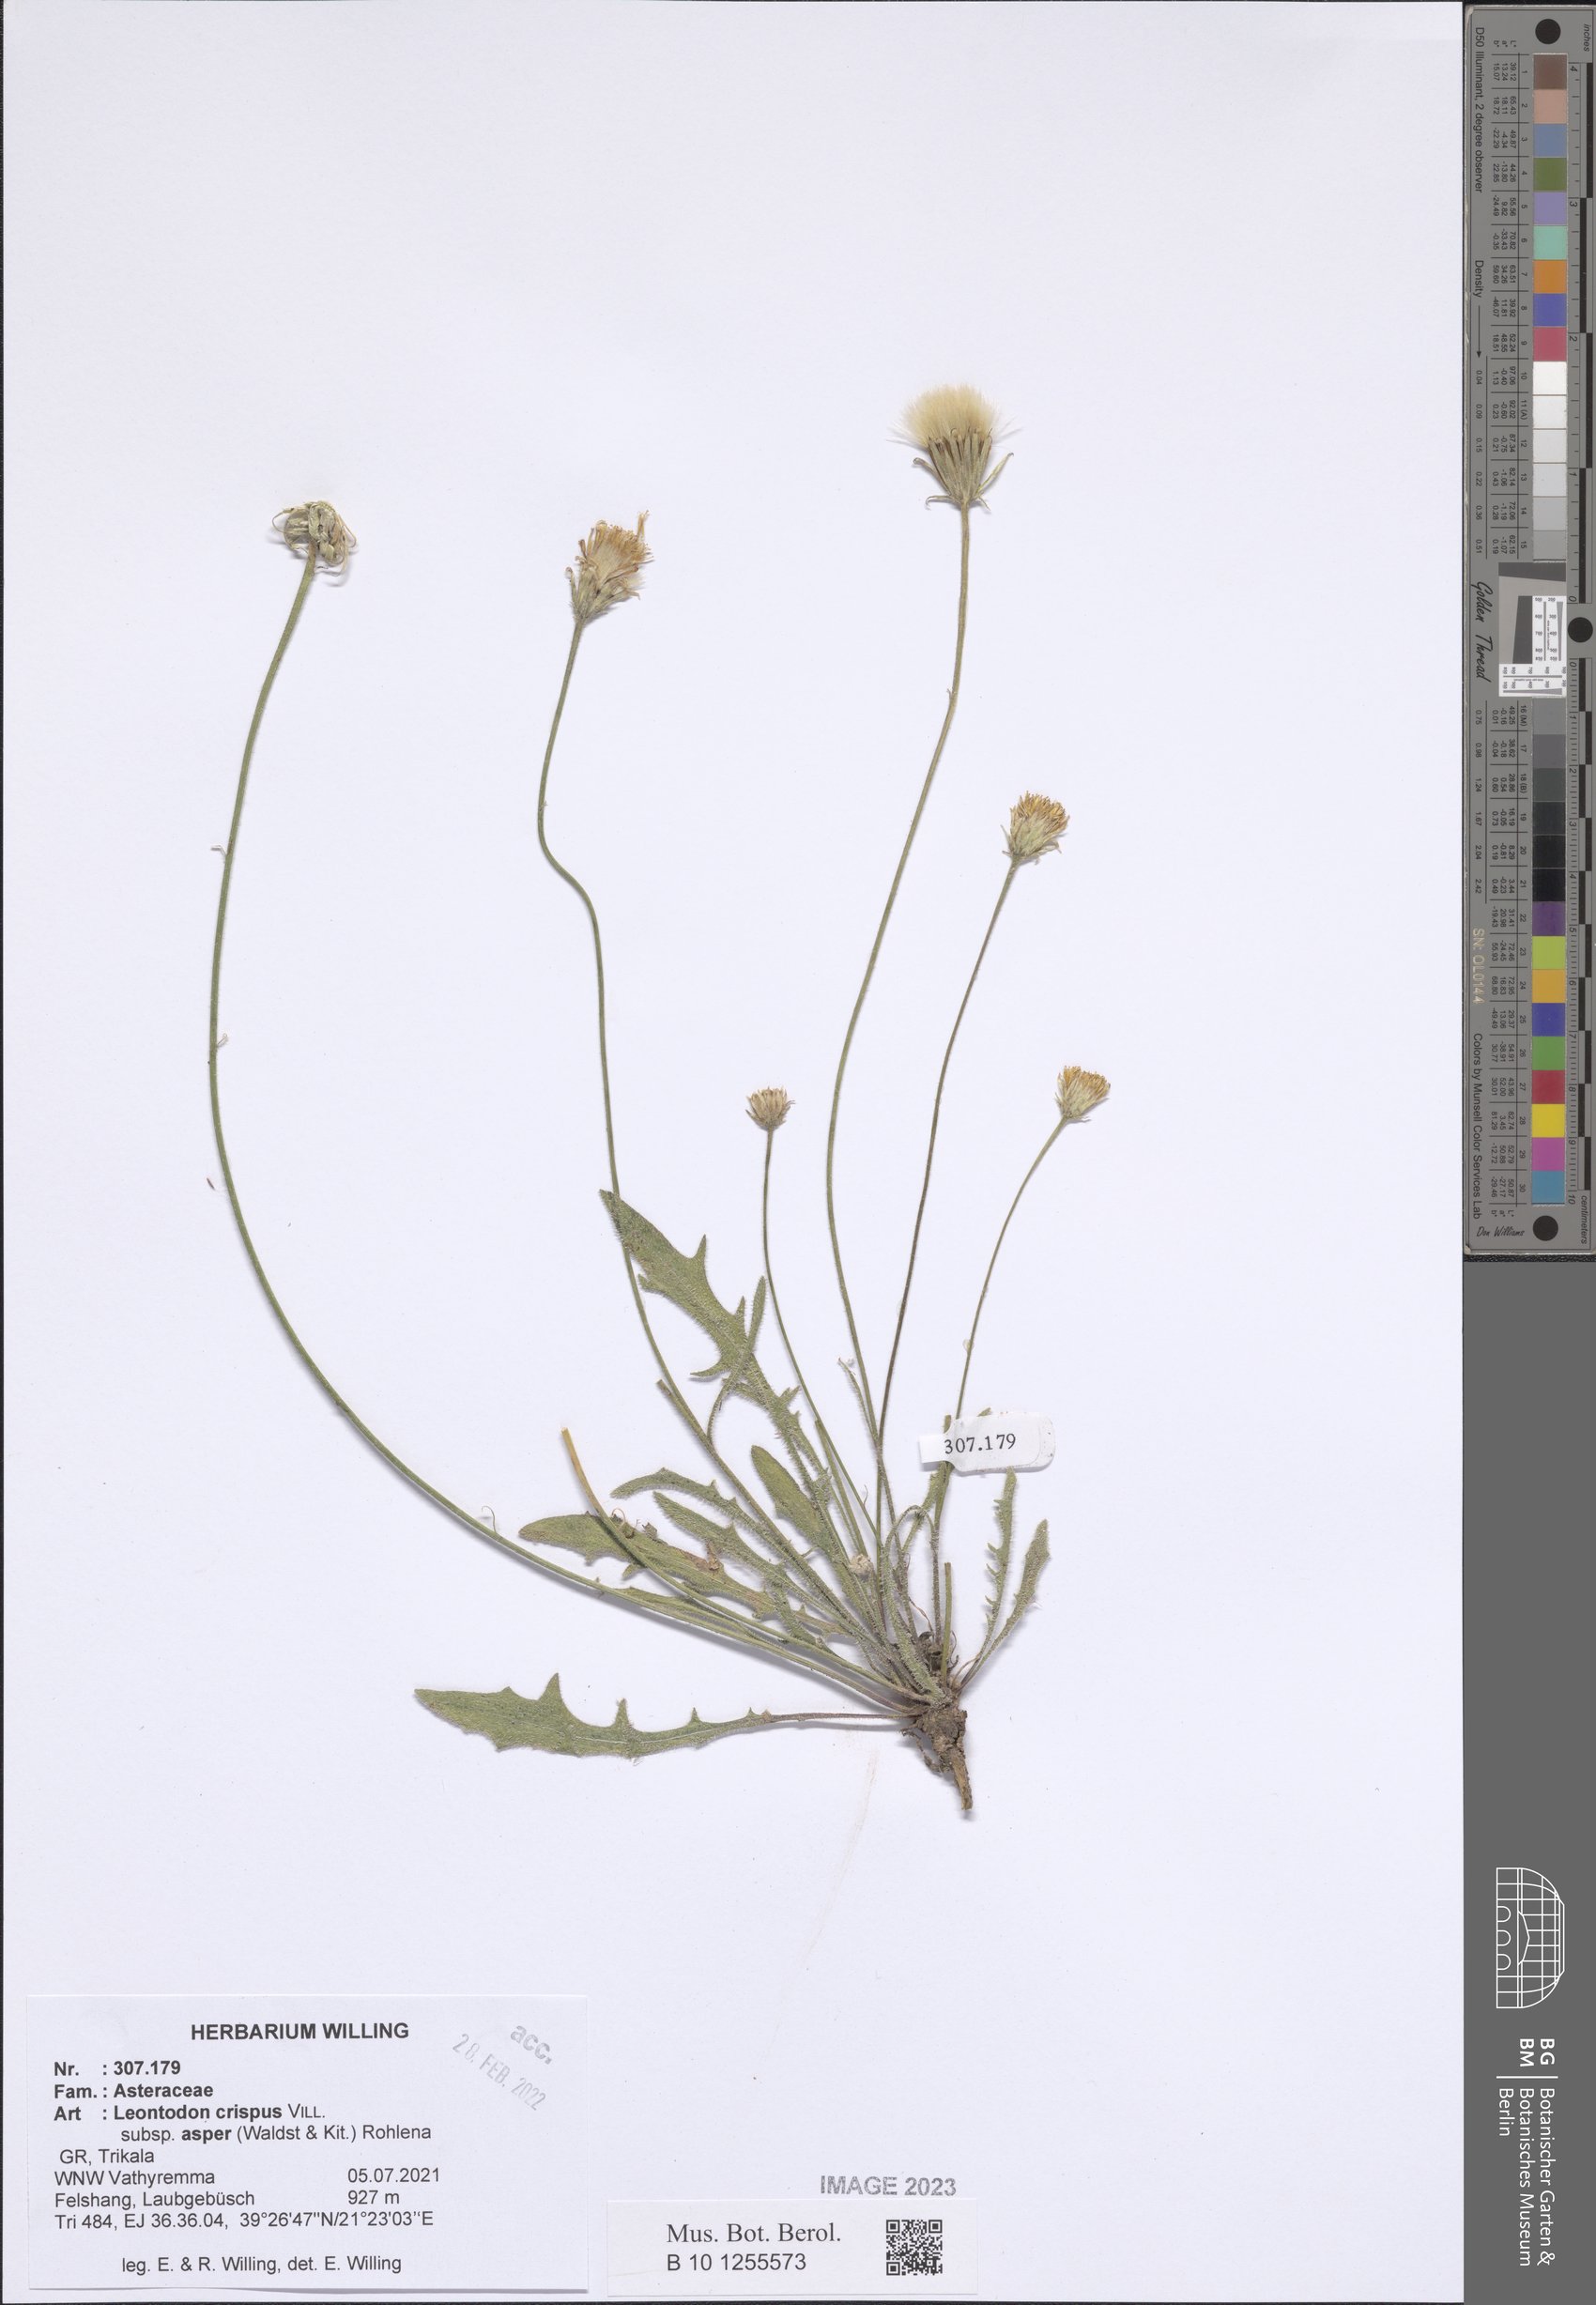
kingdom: Plantae
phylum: Tracheophyta
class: Magnoliopsida
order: Asterales
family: Asteraceae
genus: Leontodon
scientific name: Leontodon biscutellifolius
